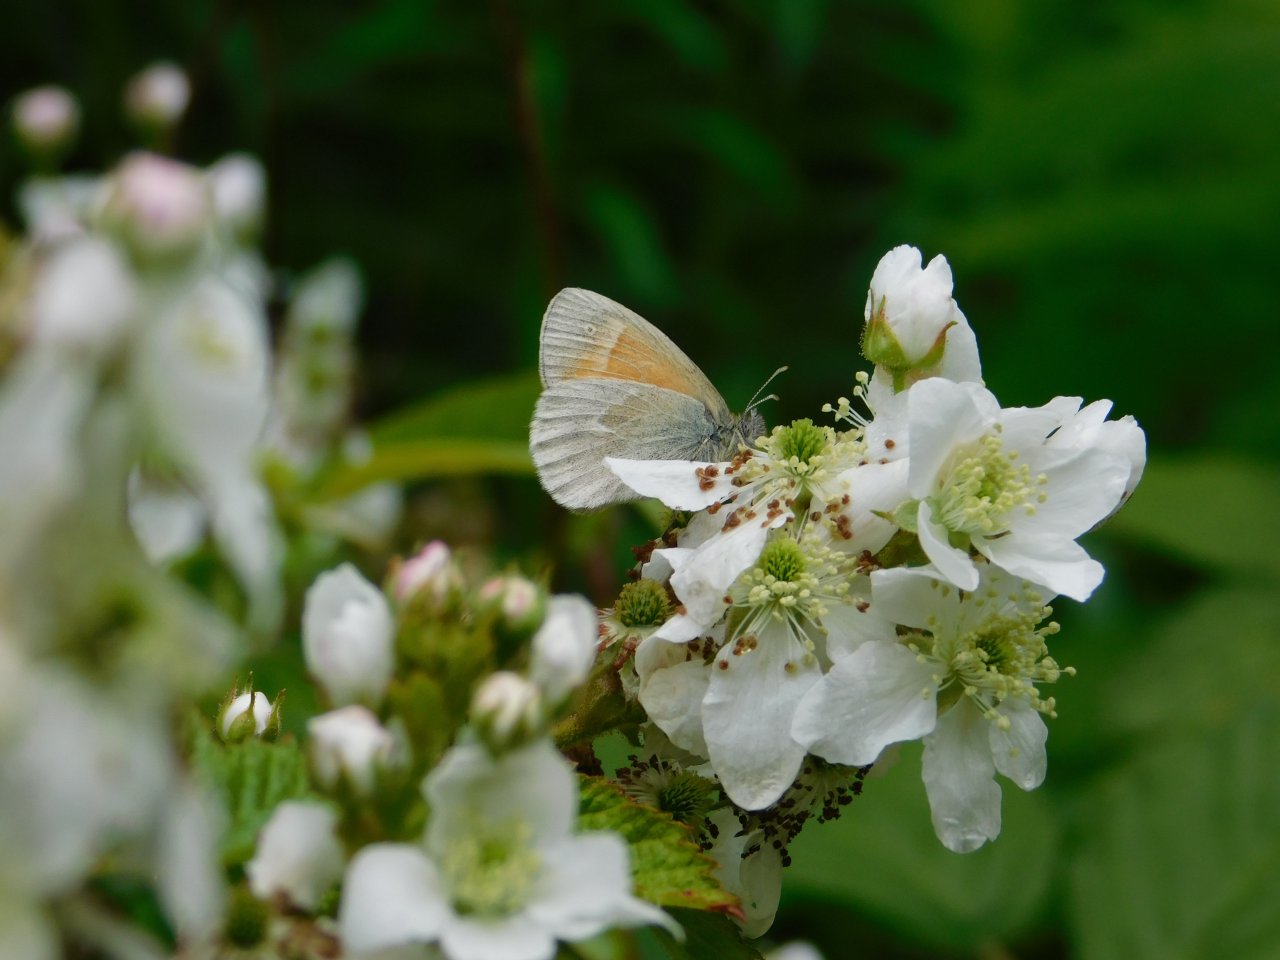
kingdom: Animalia
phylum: Arthropoda
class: Insecta
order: Lepidoptera
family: Nymphalidae
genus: Coenonympha
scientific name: Coenonympha tullia
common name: Large Heath
